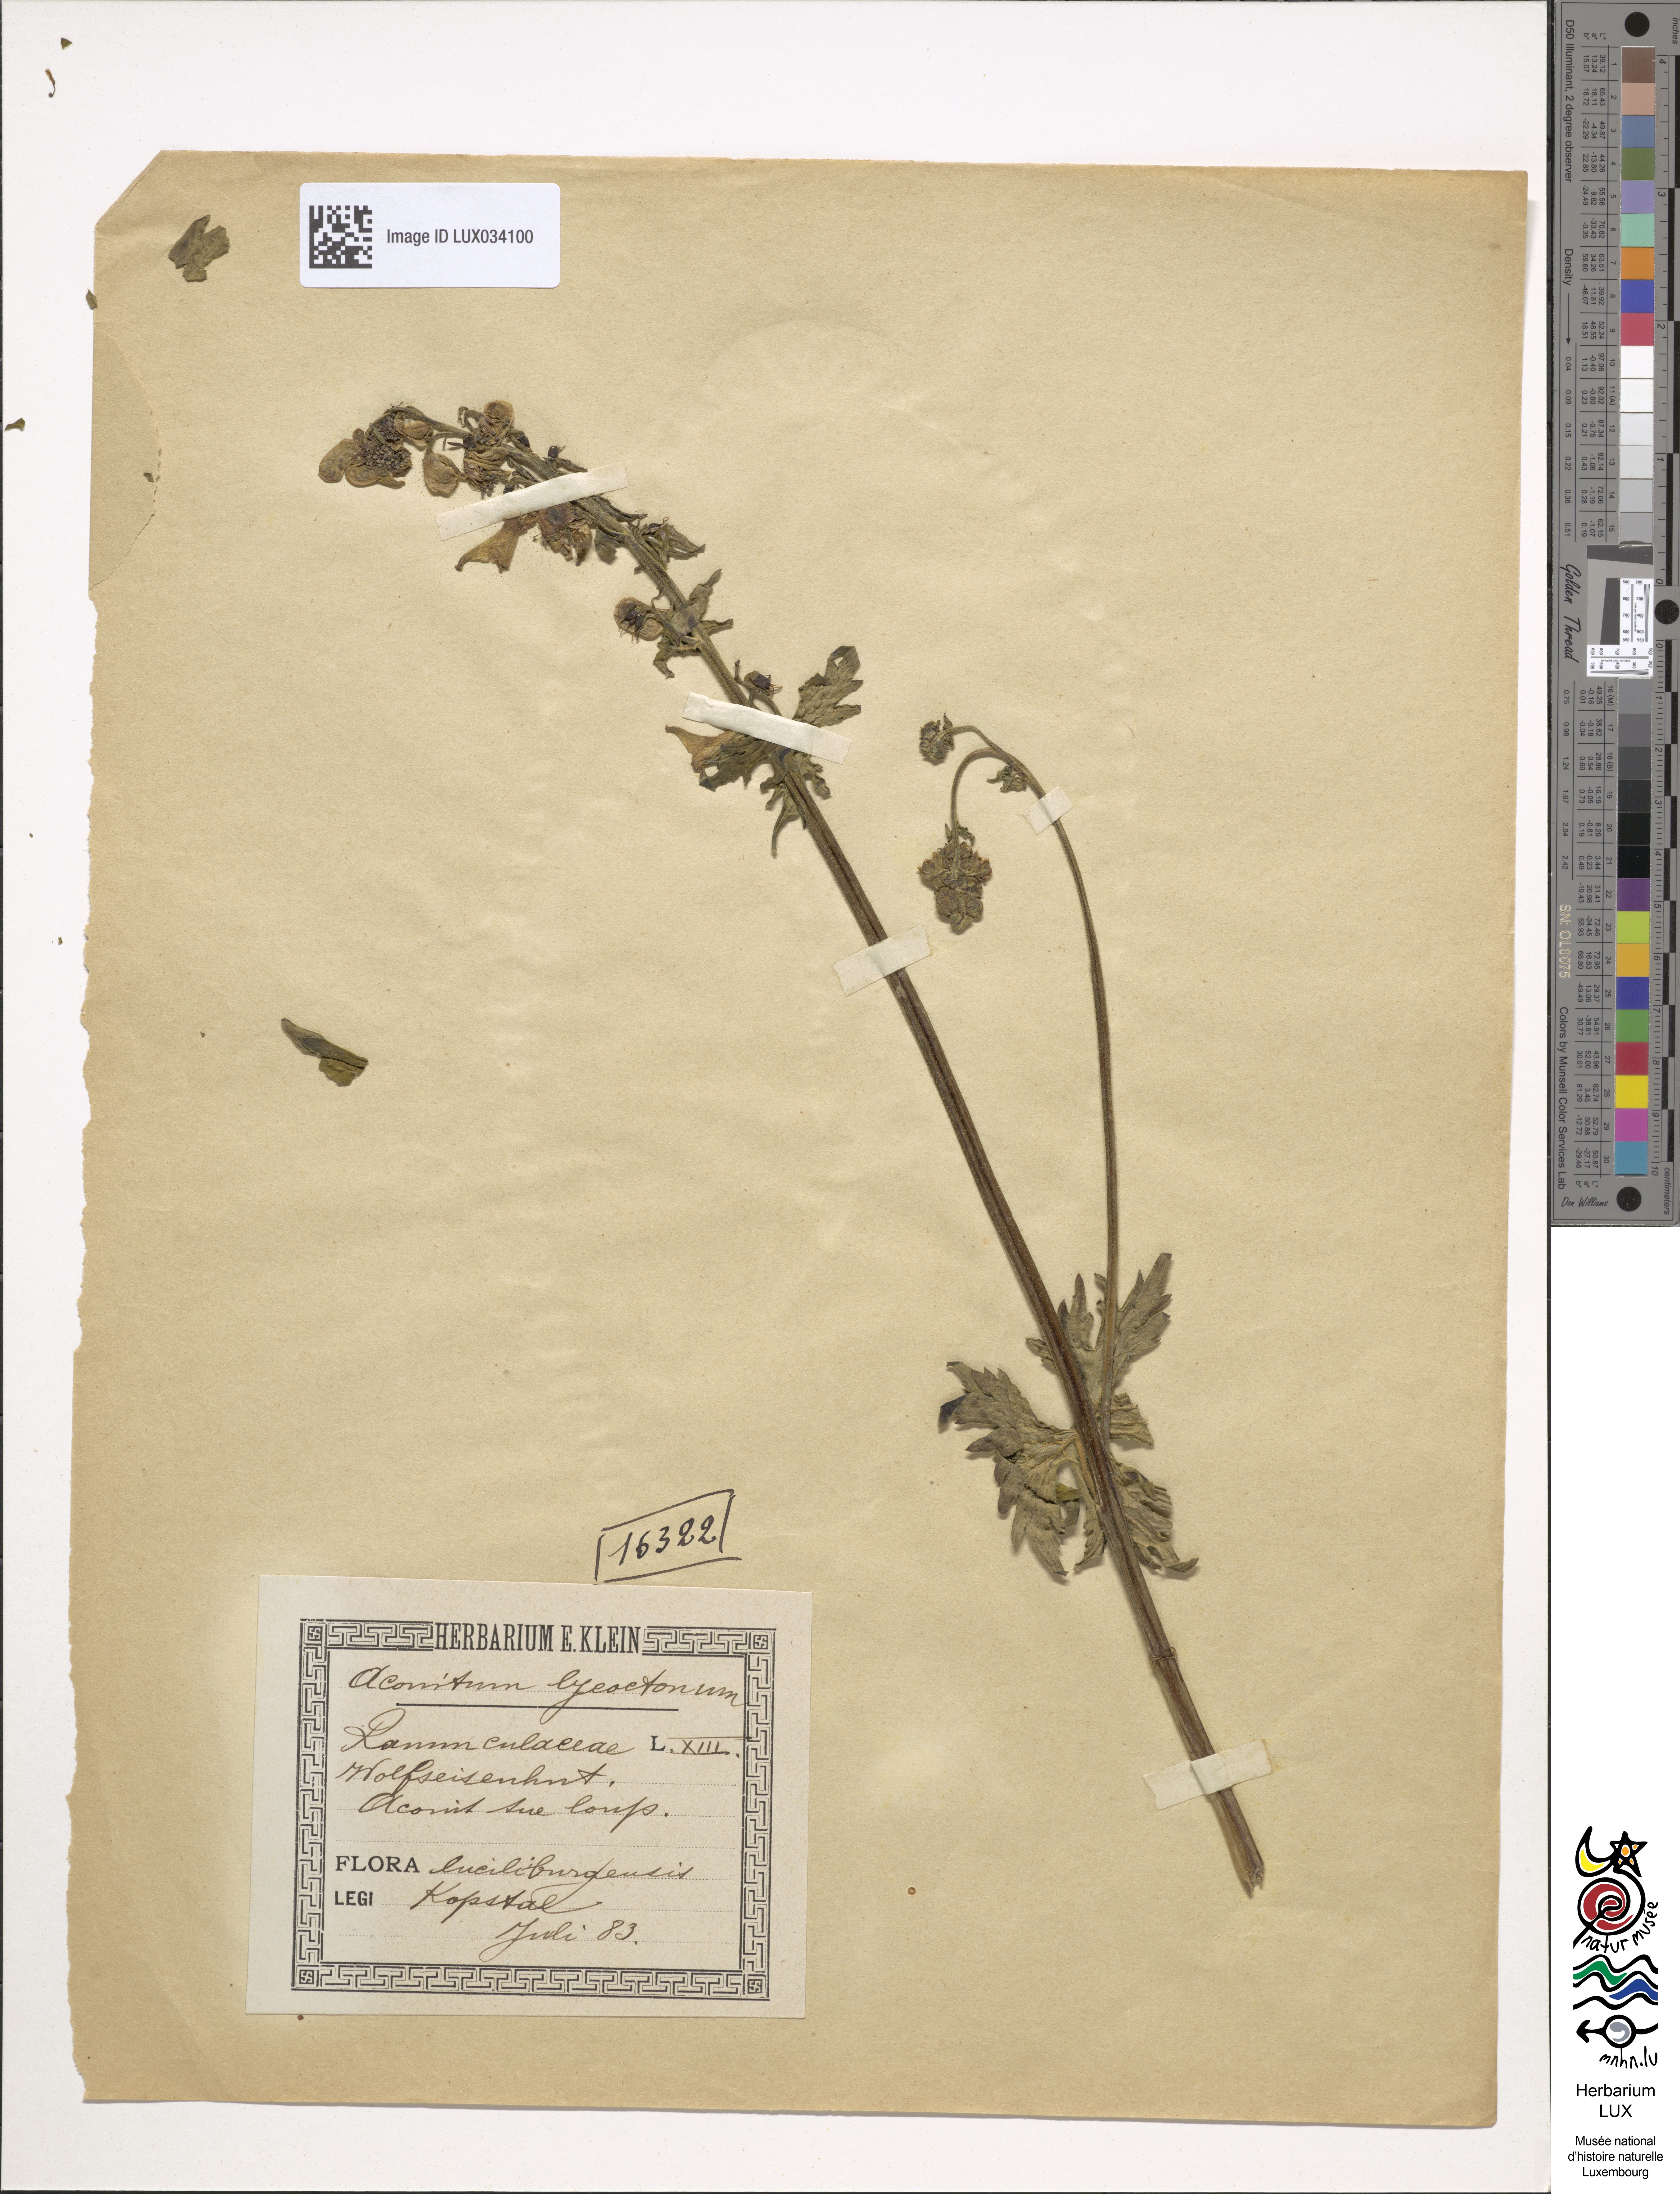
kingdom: Plantae
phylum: Tracheophyta
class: Magnoliopsida
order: Ranunculales
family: Ranunculaceae
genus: Aconitum
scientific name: Aconitum lycoctonum
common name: Wolf's-bane
